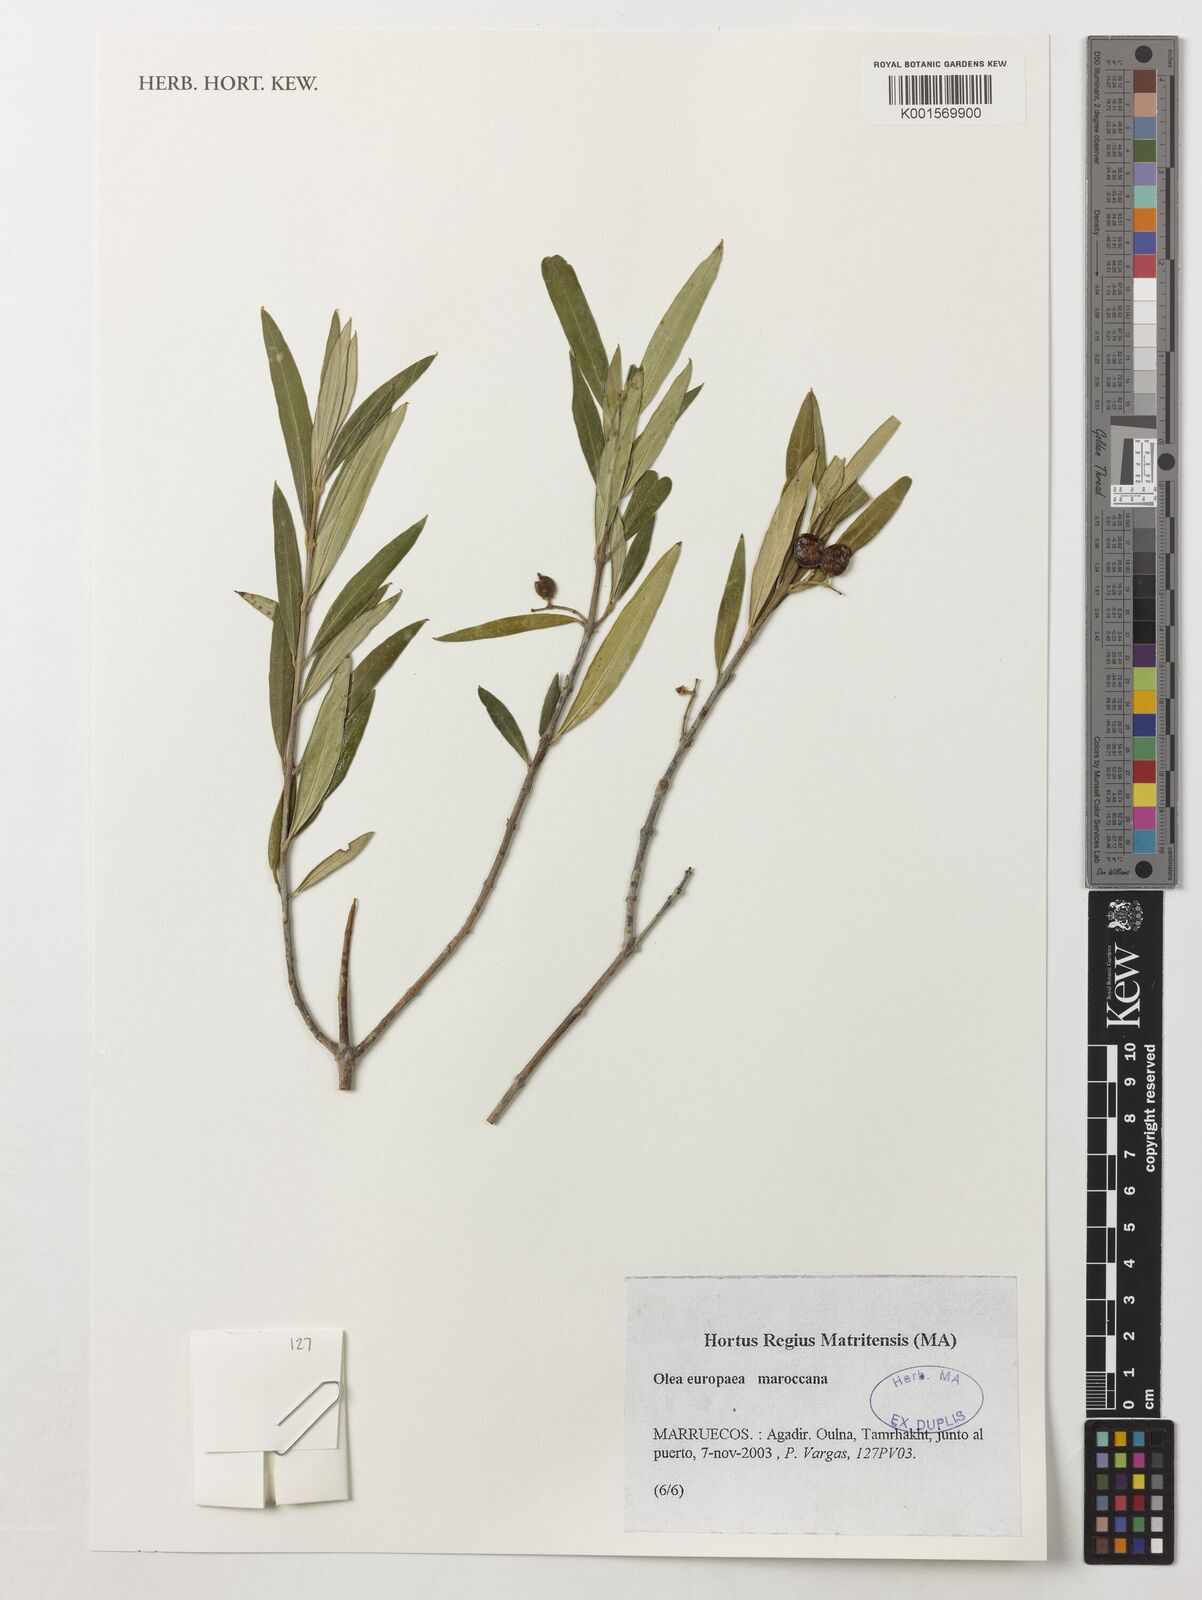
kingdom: Plantae
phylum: Tracheophyta
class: Magnoliopsida
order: Lamiales
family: Oleaceae
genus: Olea
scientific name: Olea europaea
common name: Olive
